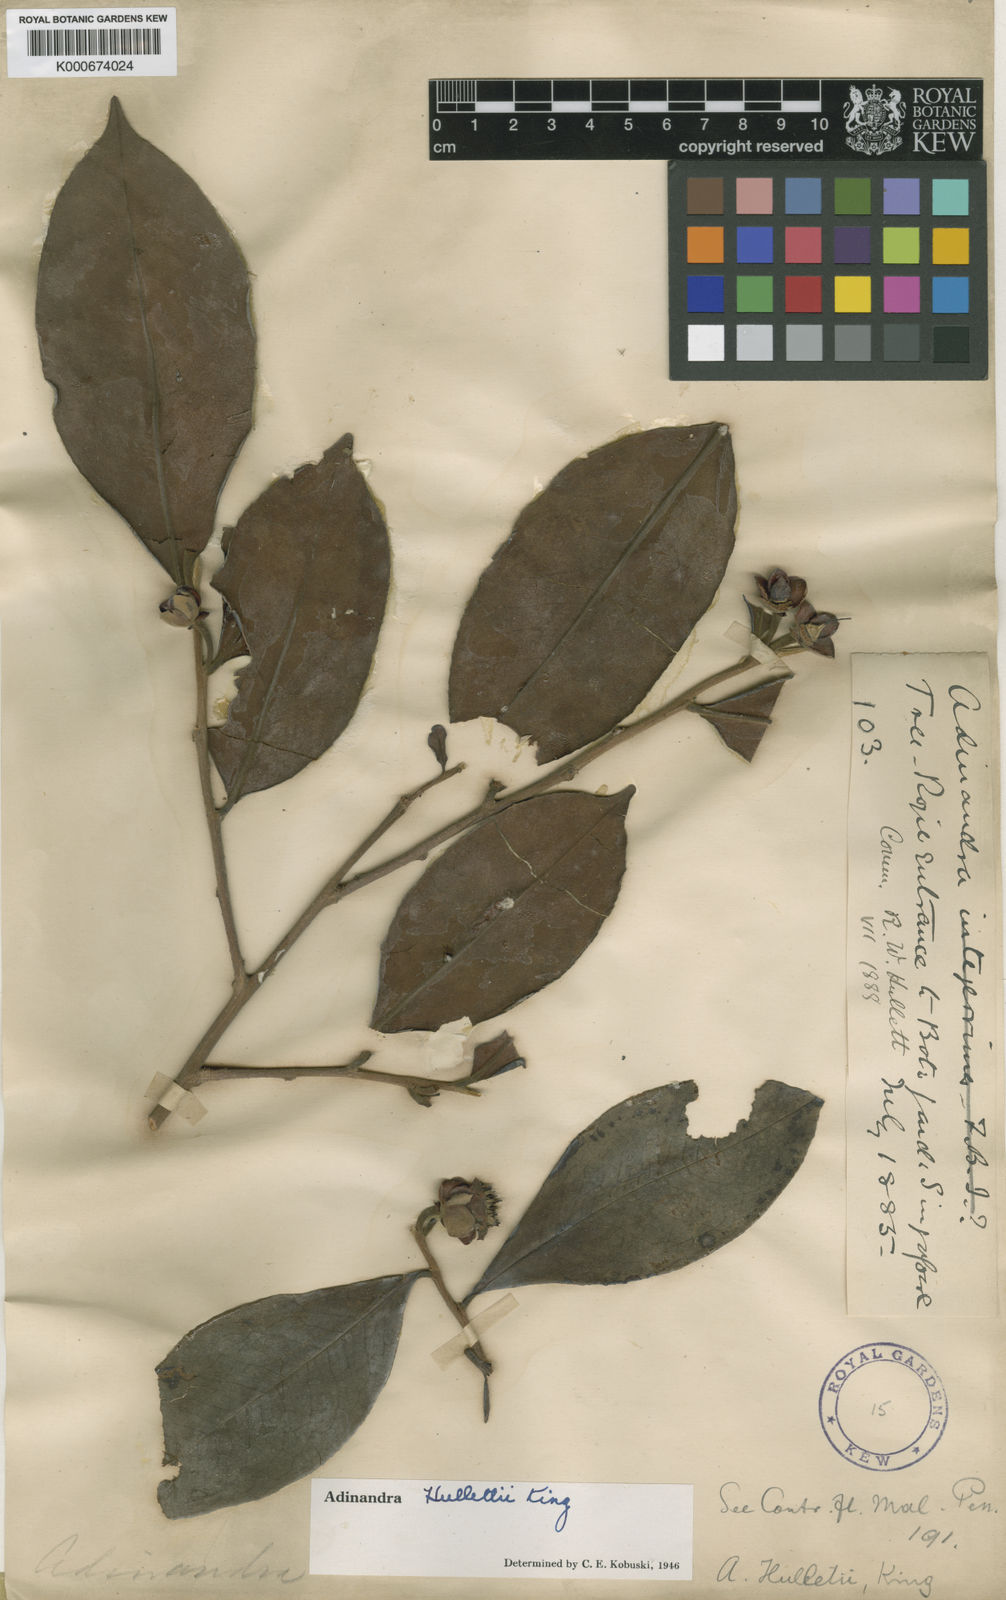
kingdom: Plantae
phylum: Tracheophyta
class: Magnoliopsida
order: Ericales
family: Pentaphylacaceae
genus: Adinandra
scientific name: Adinandra integerrima
